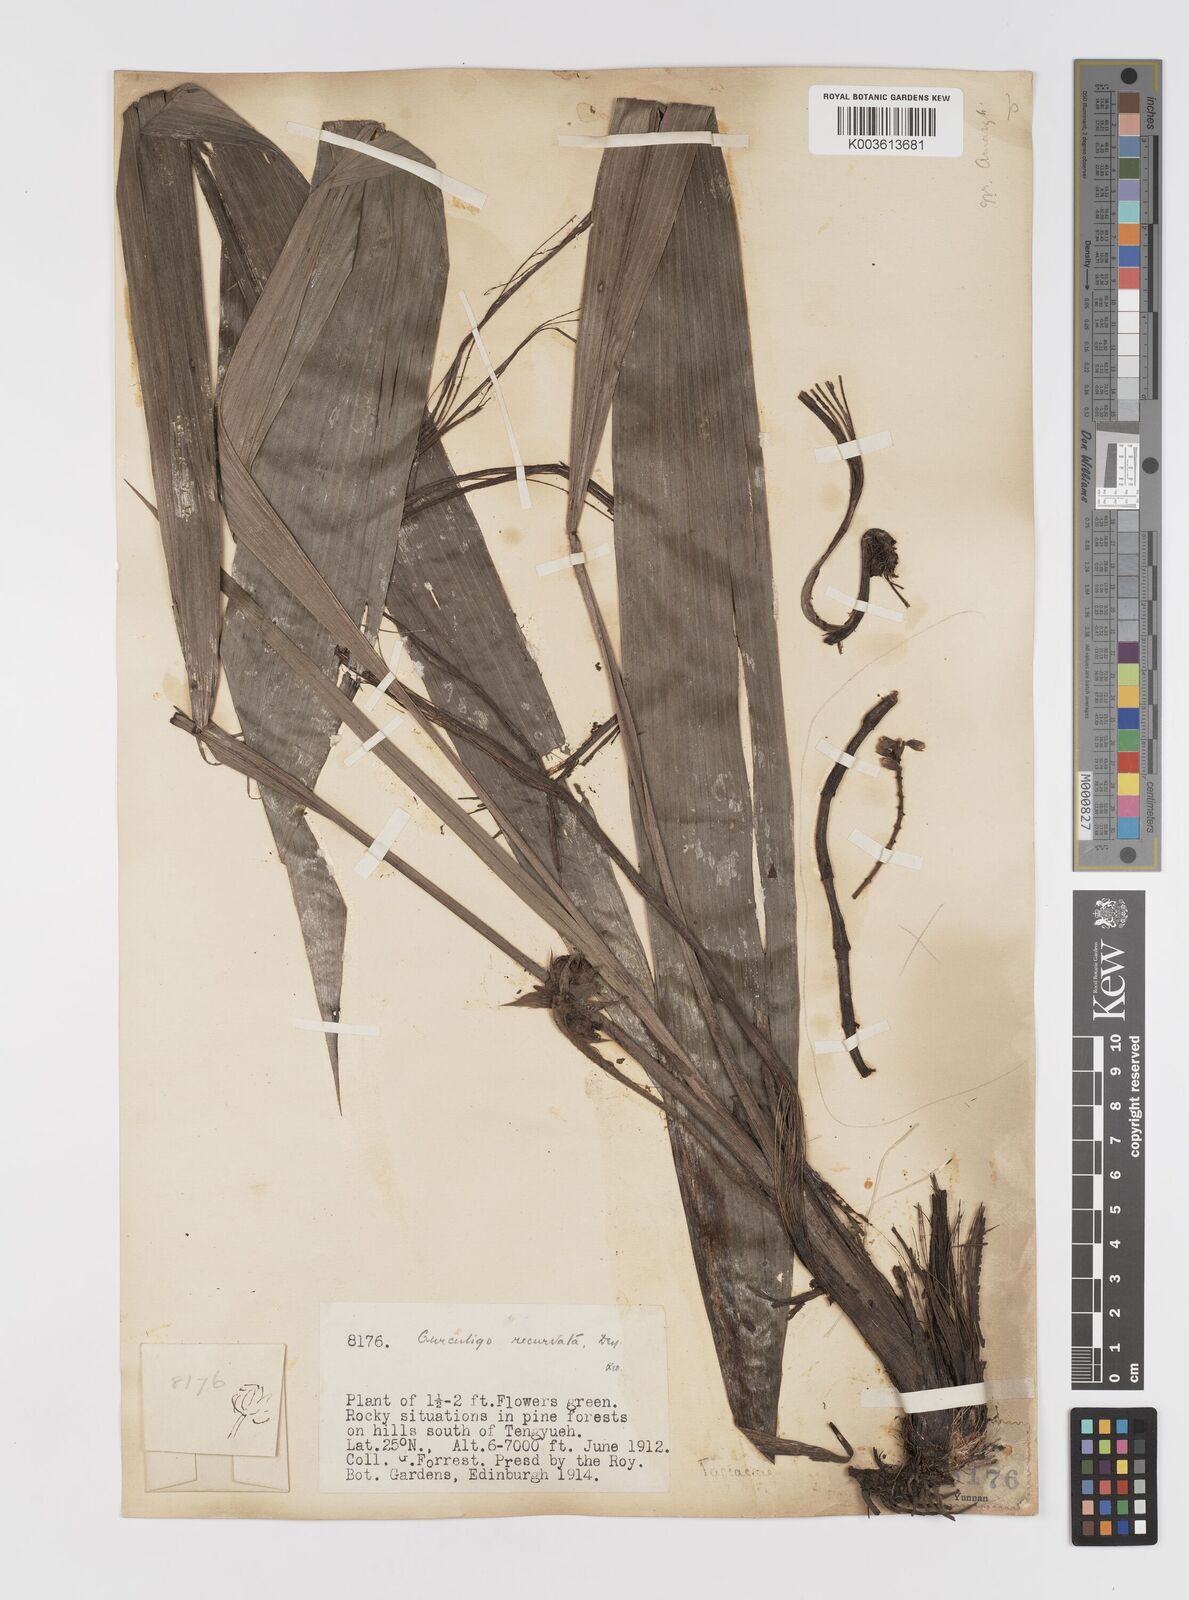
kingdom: Plantae
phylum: Tracheophyta
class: Liliopsida
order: Asparagales
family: Hypoxidaceae
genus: Curculigo
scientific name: Curculigo capitulata
